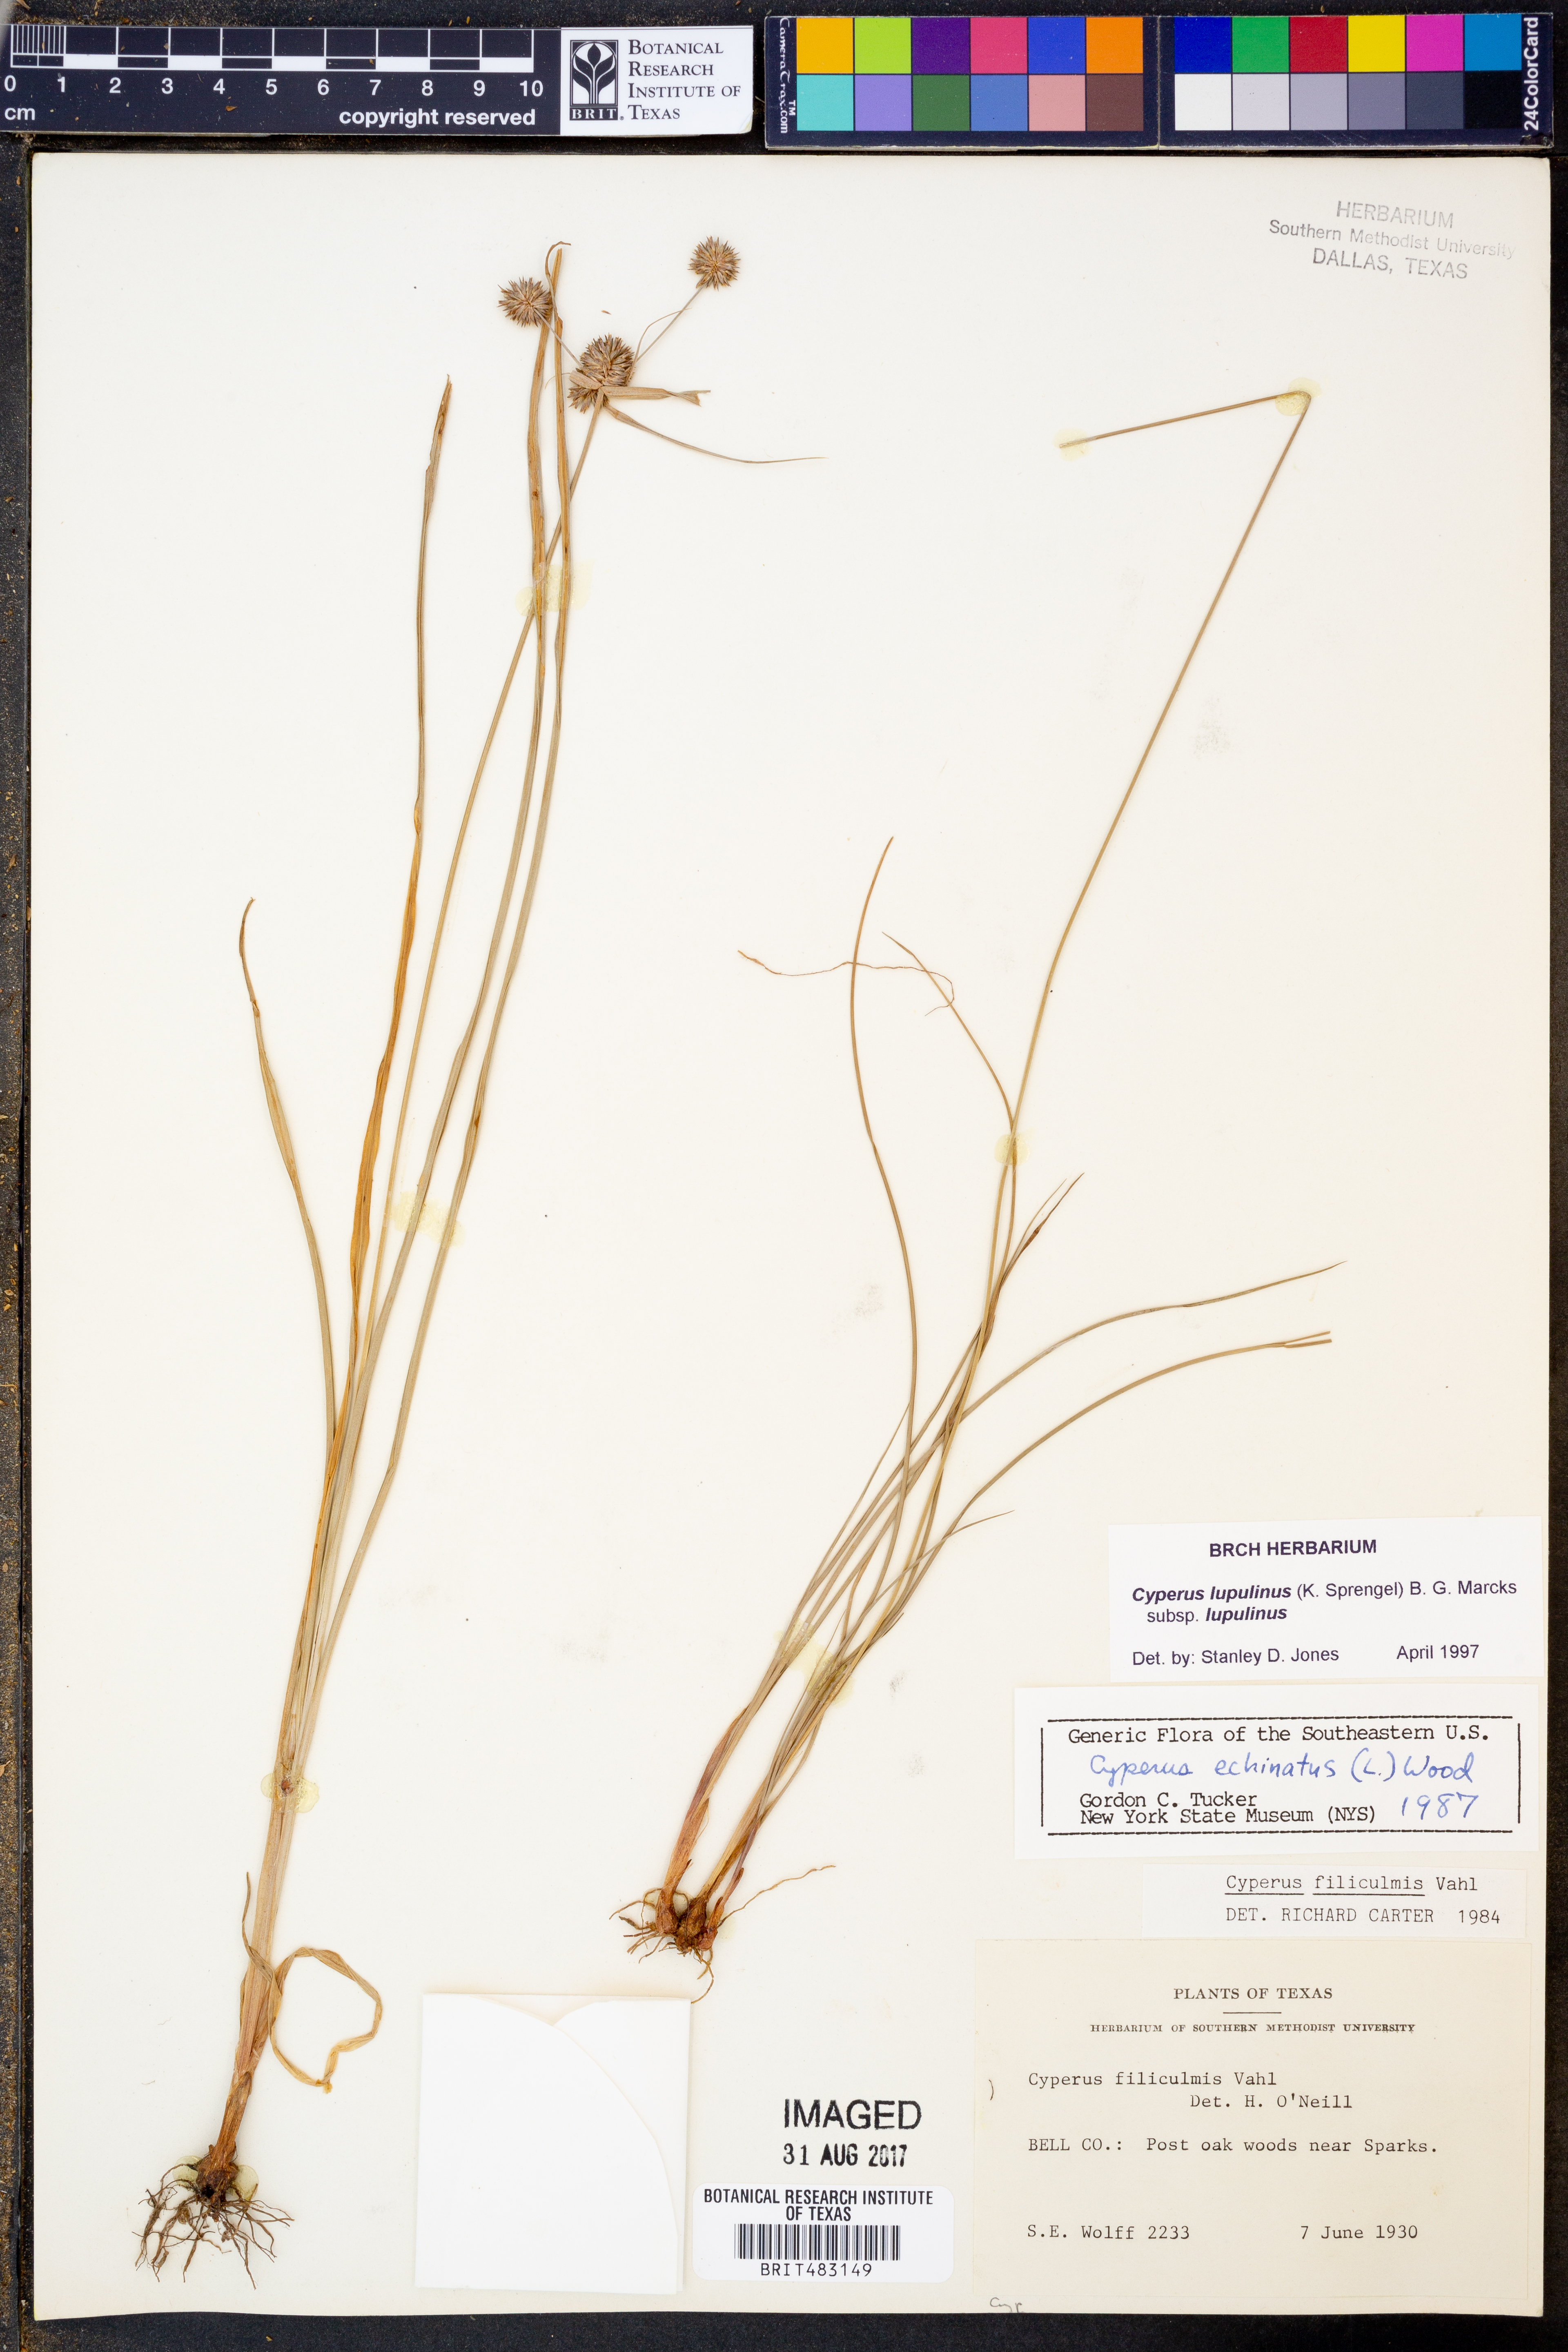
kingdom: Plantae
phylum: Tracheophyta
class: Liliopsida
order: Poales
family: Cyperaceae
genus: Cyperus
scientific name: Cyperus lupulinus
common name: Great plains flatsedge
